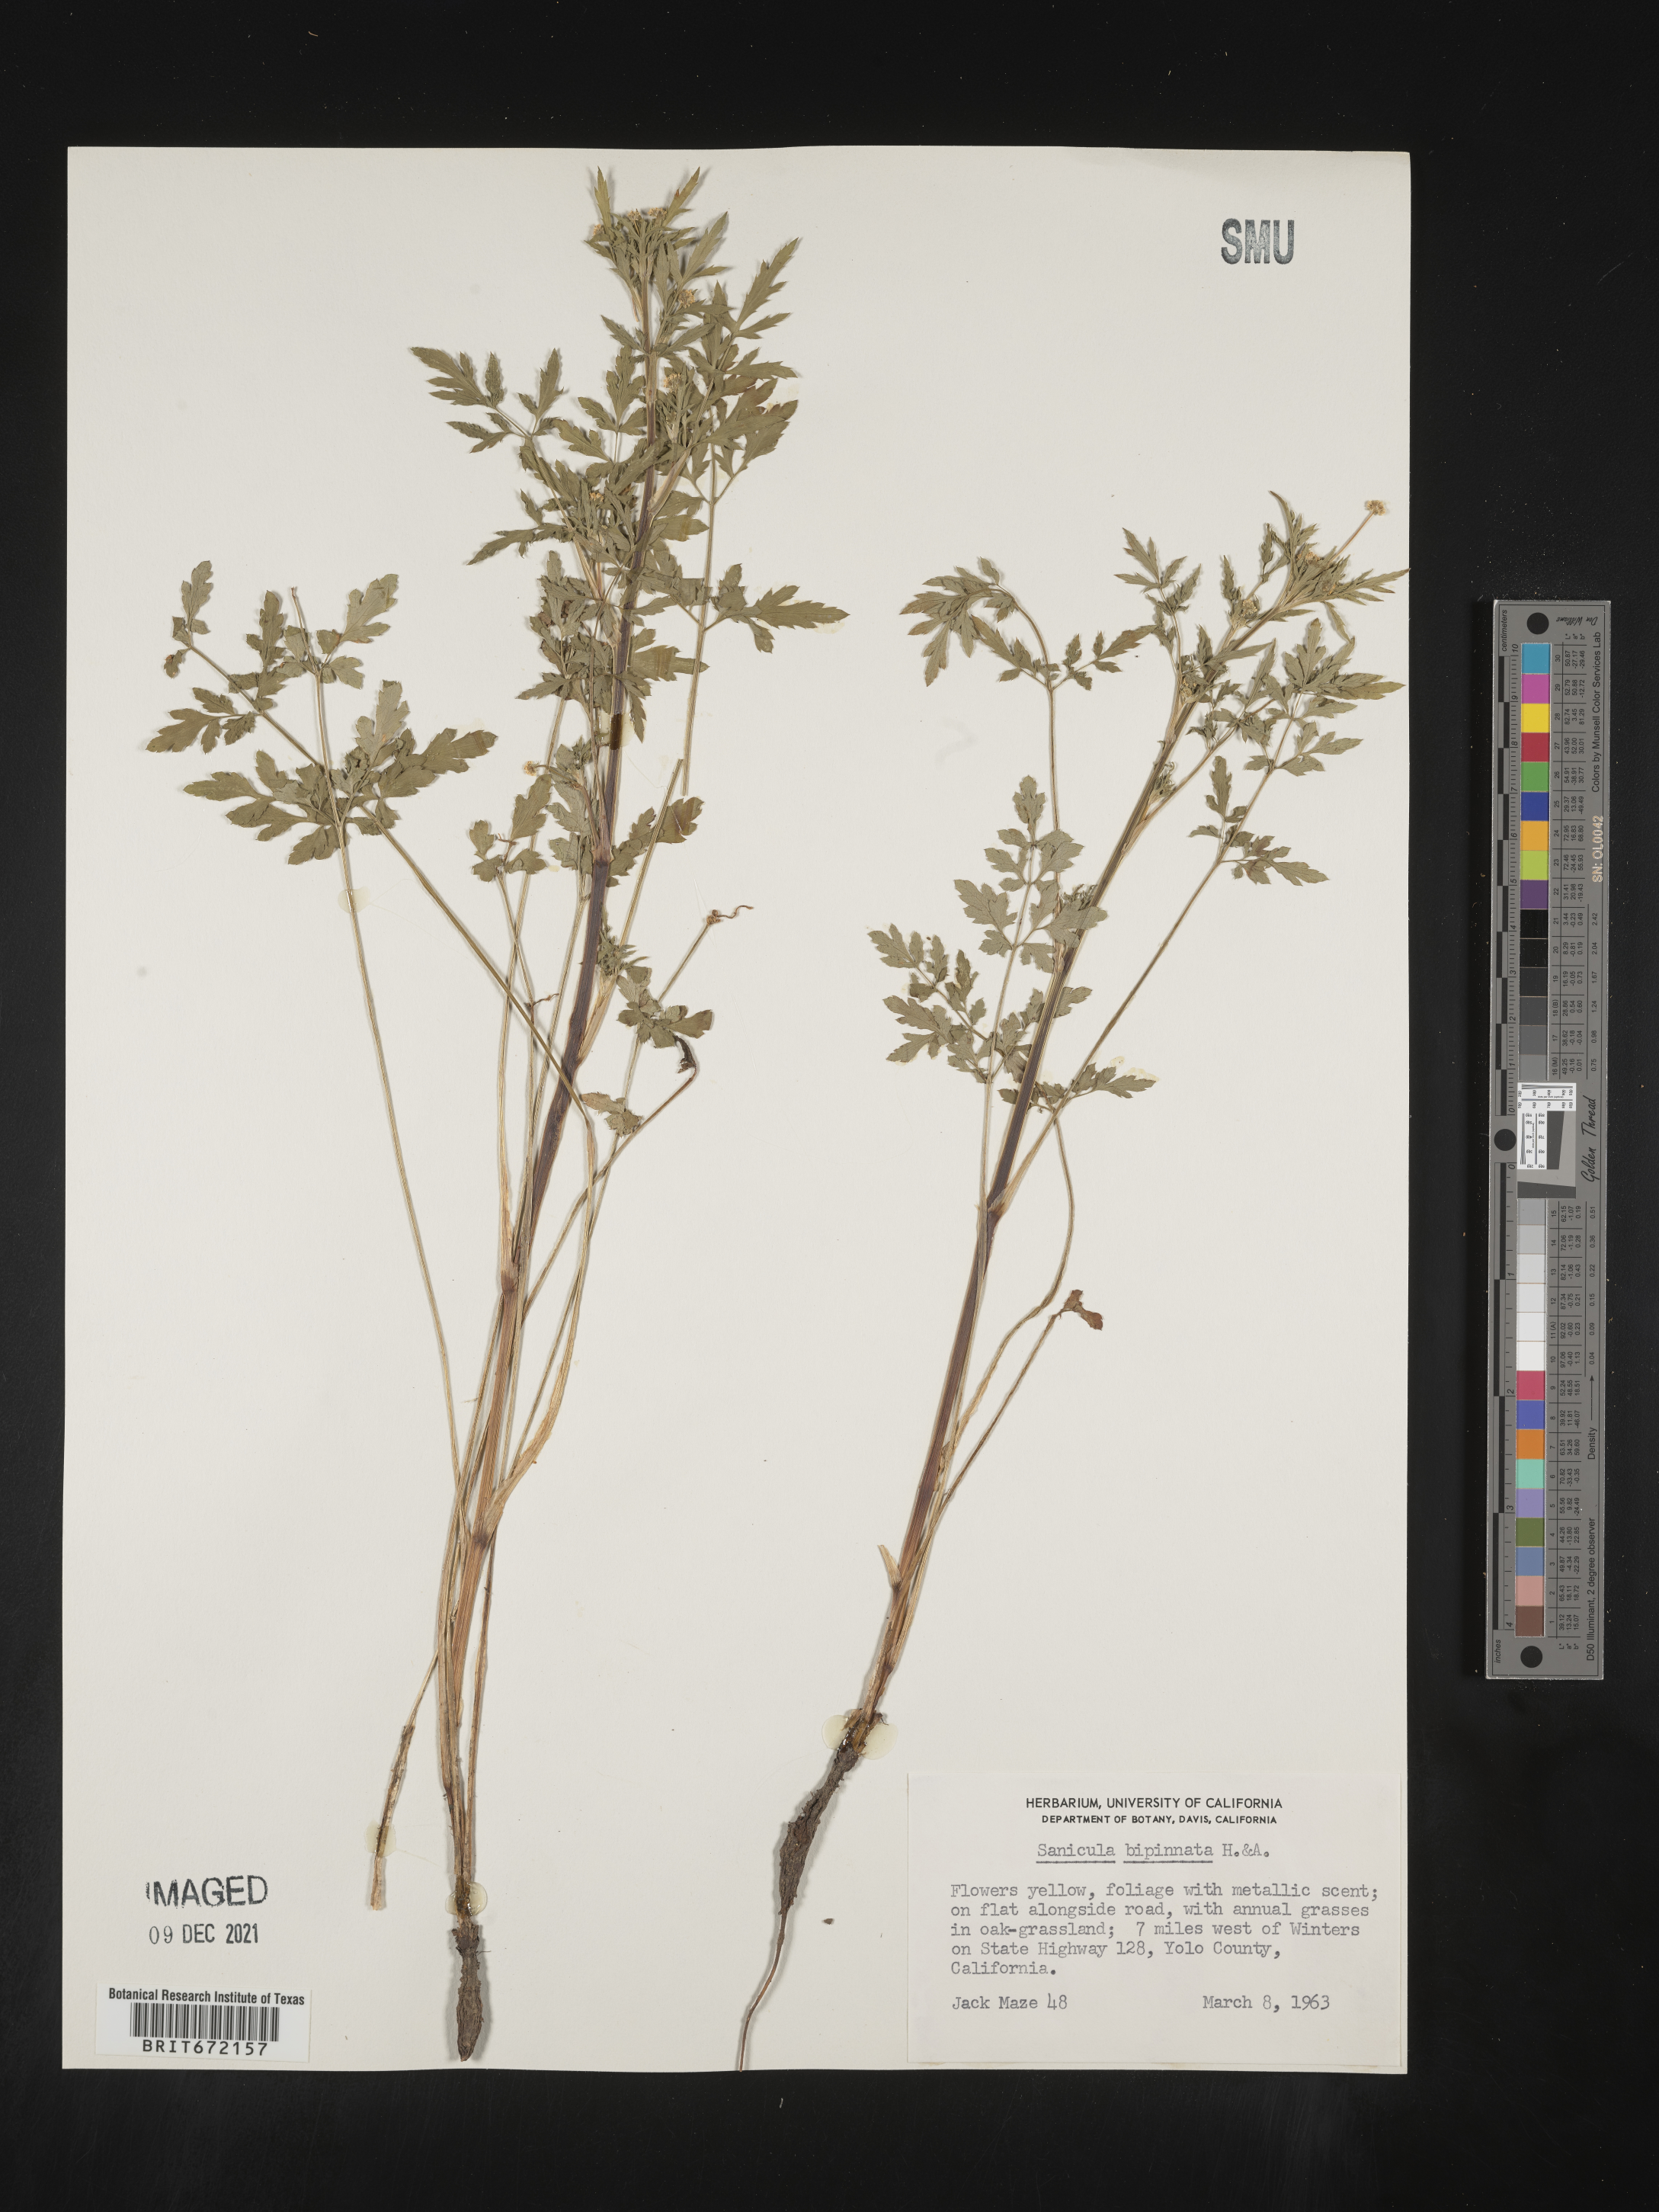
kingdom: Plantae
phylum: Tracheophyta
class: Magnoliopsida
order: Apiales
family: Apiaceae
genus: Sanicula
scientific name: Sanicula
